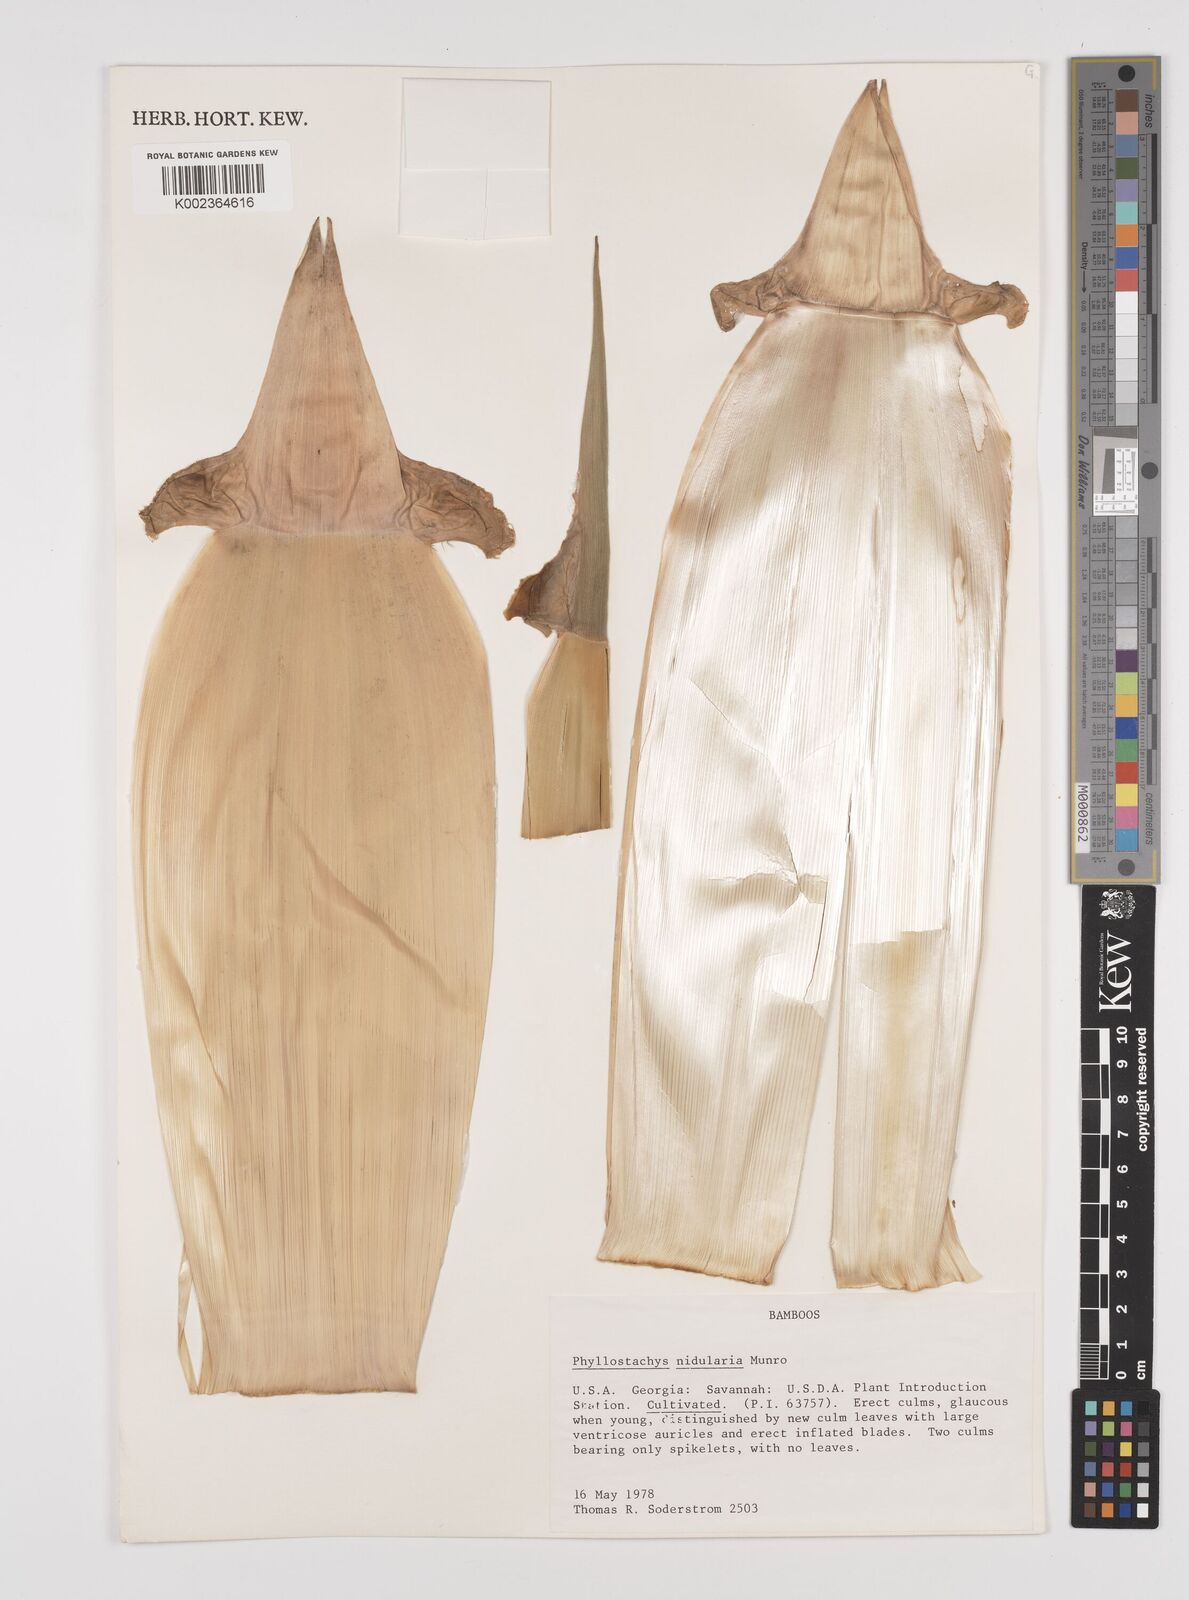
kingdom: Plantae
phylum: Tracheophyta
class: Liliopsida
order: Poales
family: Poaceae
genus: Phyllostachys
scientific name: Phyllostachys nidularia
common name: Broom bamboo
